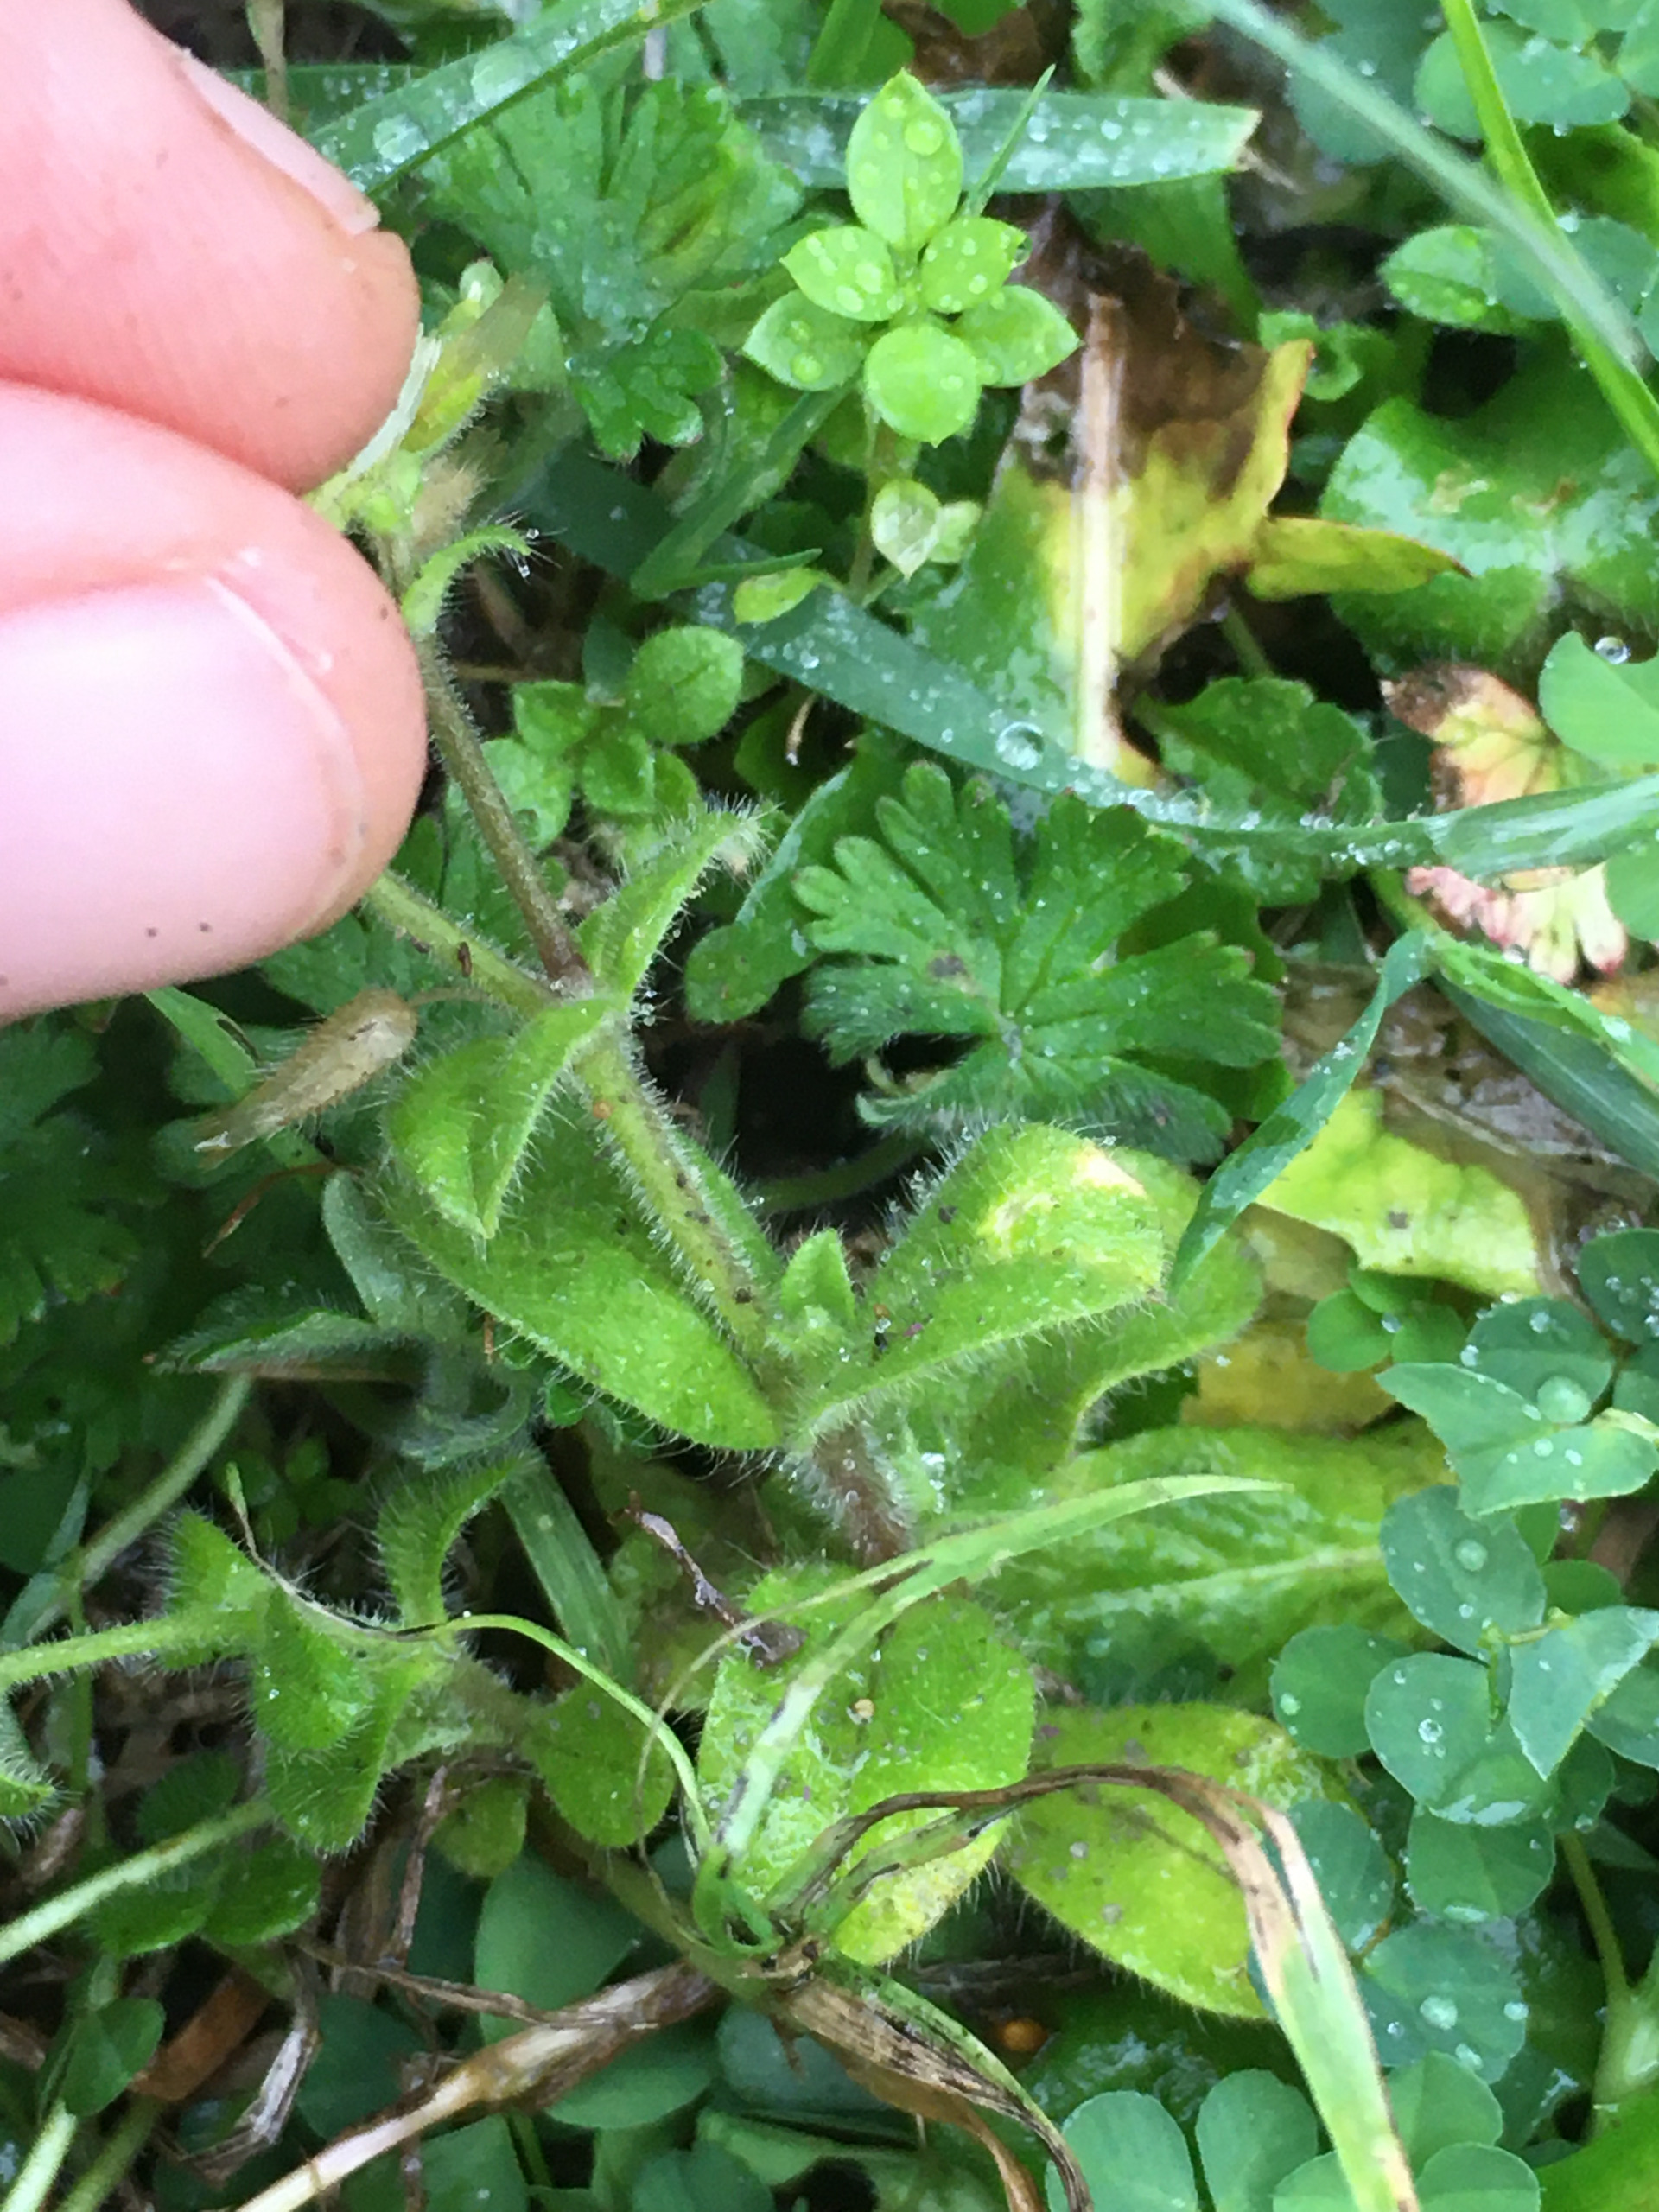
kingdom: Plantae
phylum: Tracheophyta
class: Magnoliopsida
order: Caryophyllales
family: Caryophyllaceae
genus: Cerastium
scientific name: Cerastium glomeratum
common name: Opret hønsetarm
